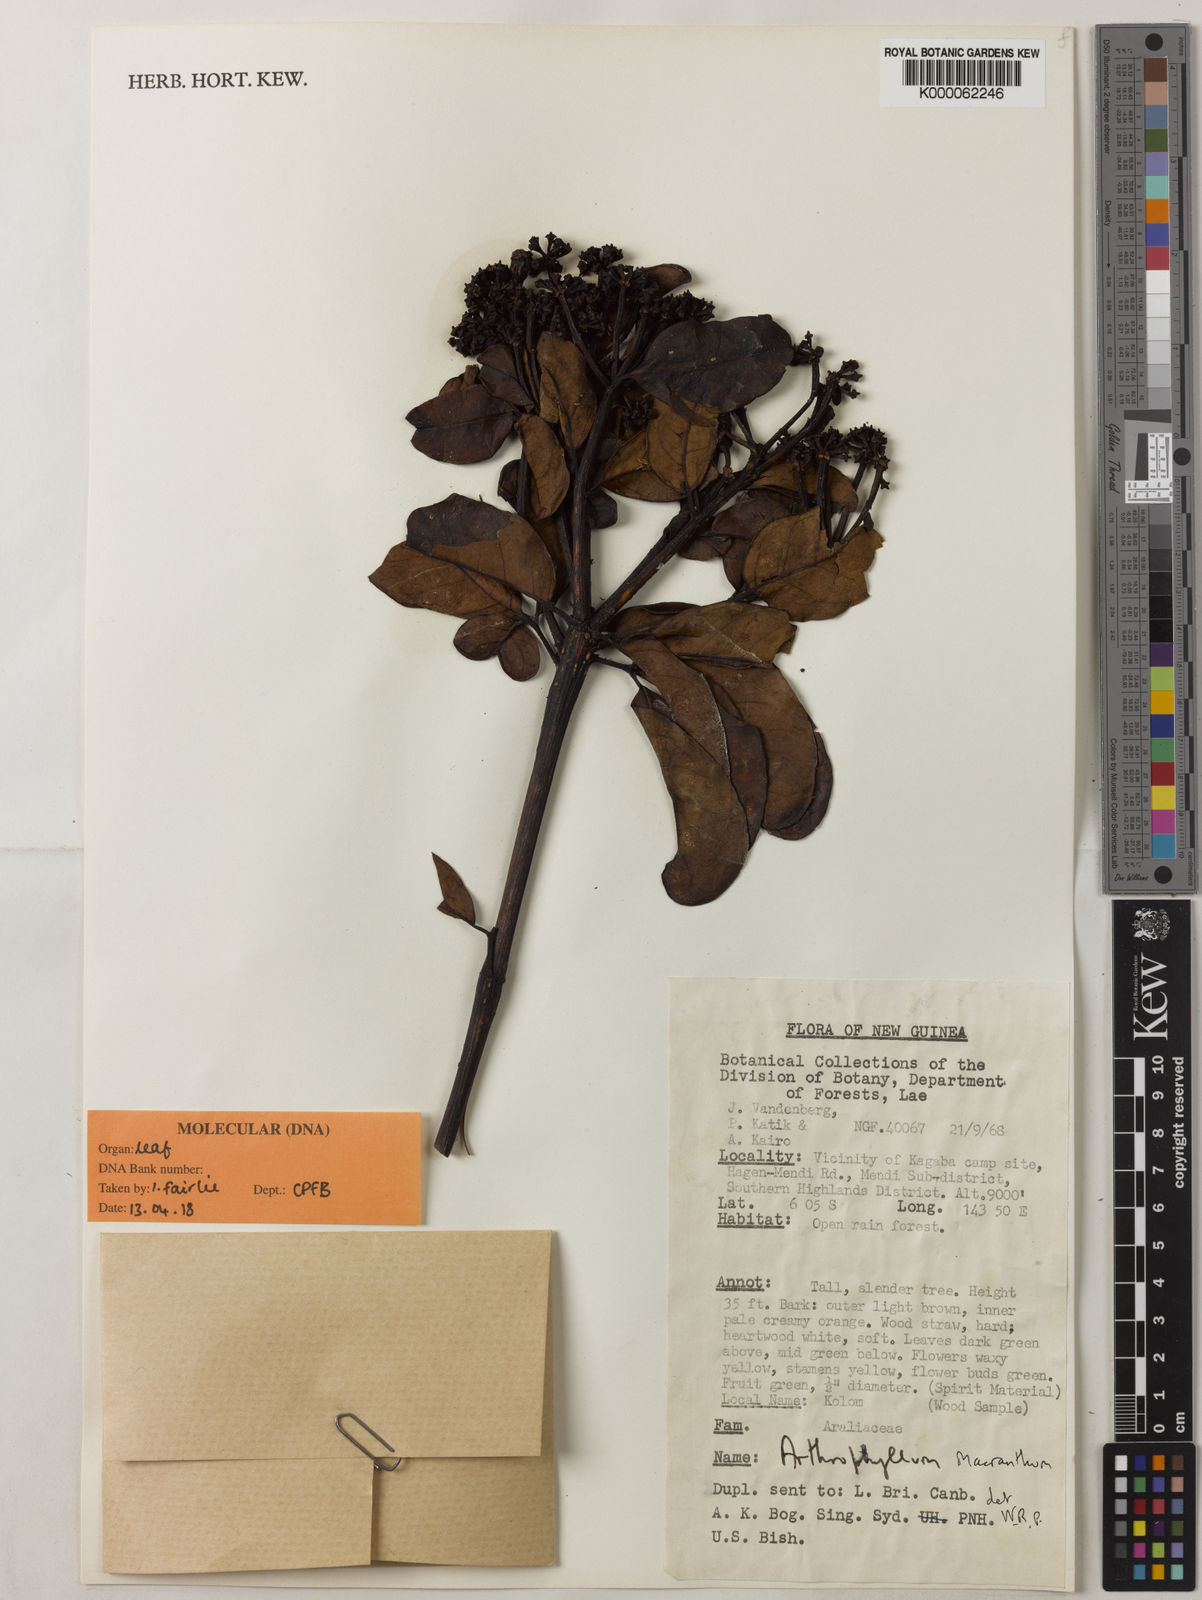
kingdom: Plantae
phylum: Tracheophyta
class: Magnoliopsida
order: Lamiales
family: Bignoniaceae
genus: Arthrophyllum
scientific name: Arthrophyllum
